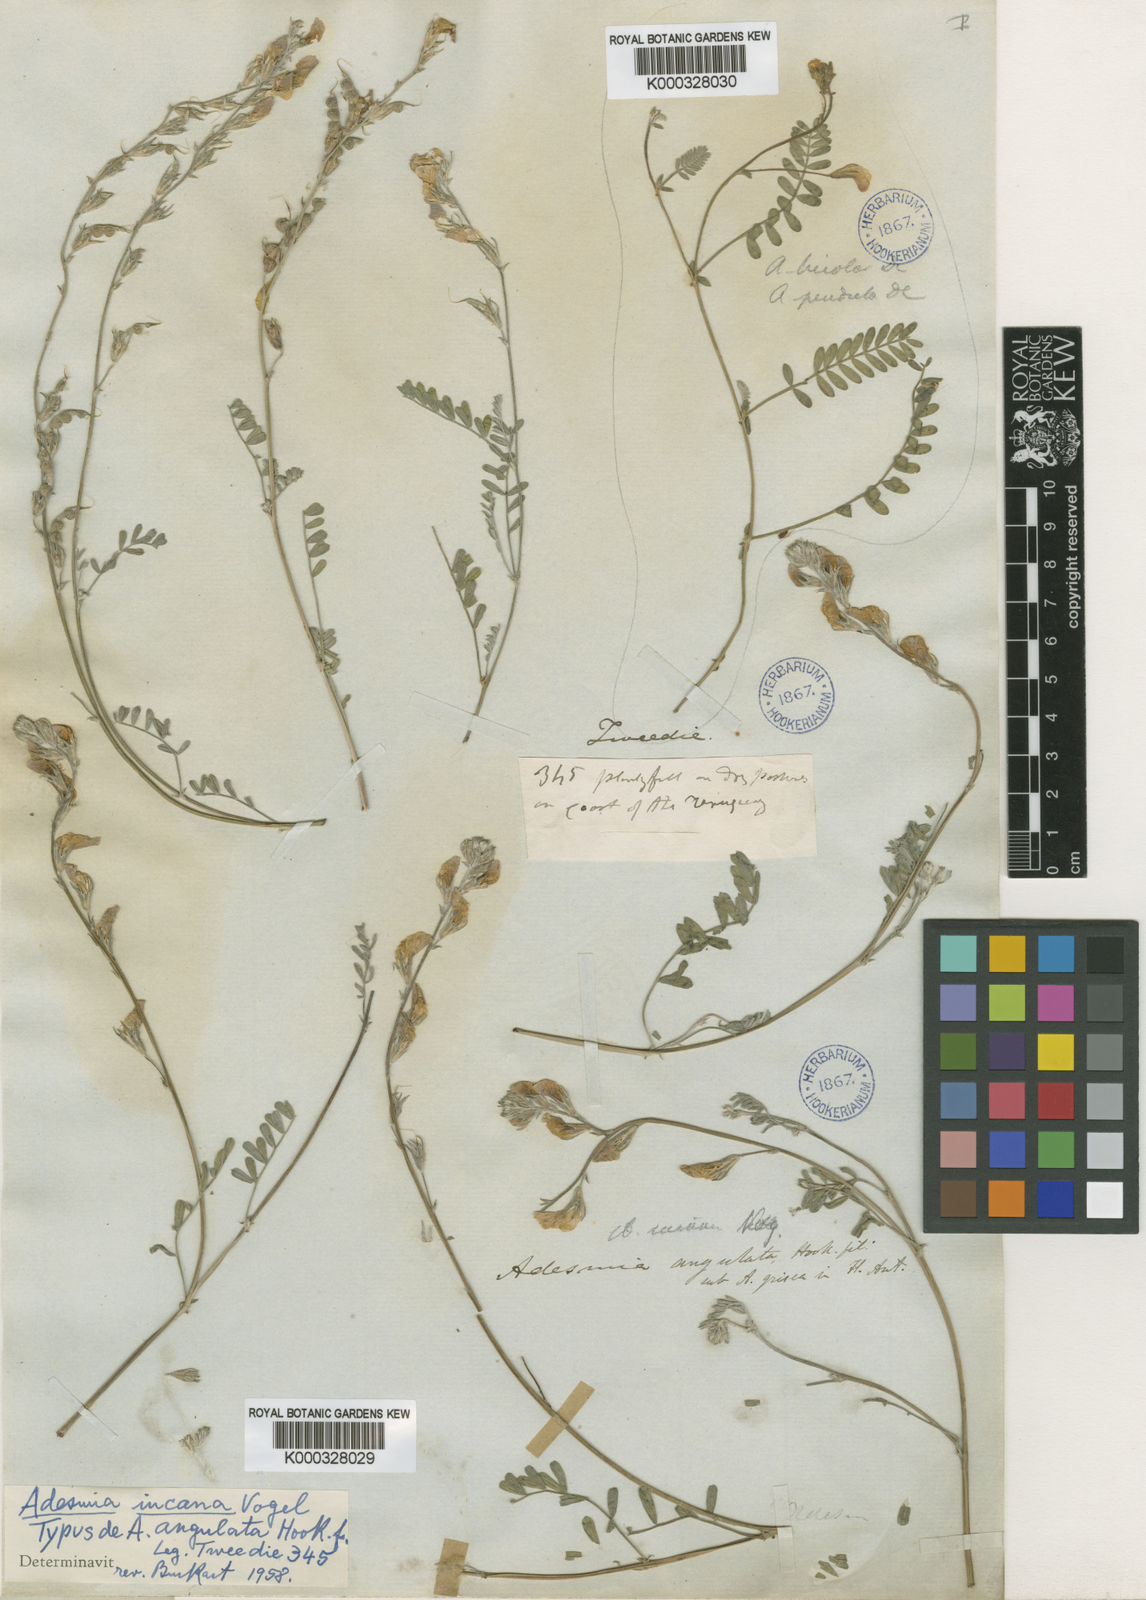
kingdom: Plantae
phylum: Tracheophyta
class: Magnoliopsida
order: Fabales
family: Fabaceae
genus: Adesmia
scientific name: Adesmia incana
